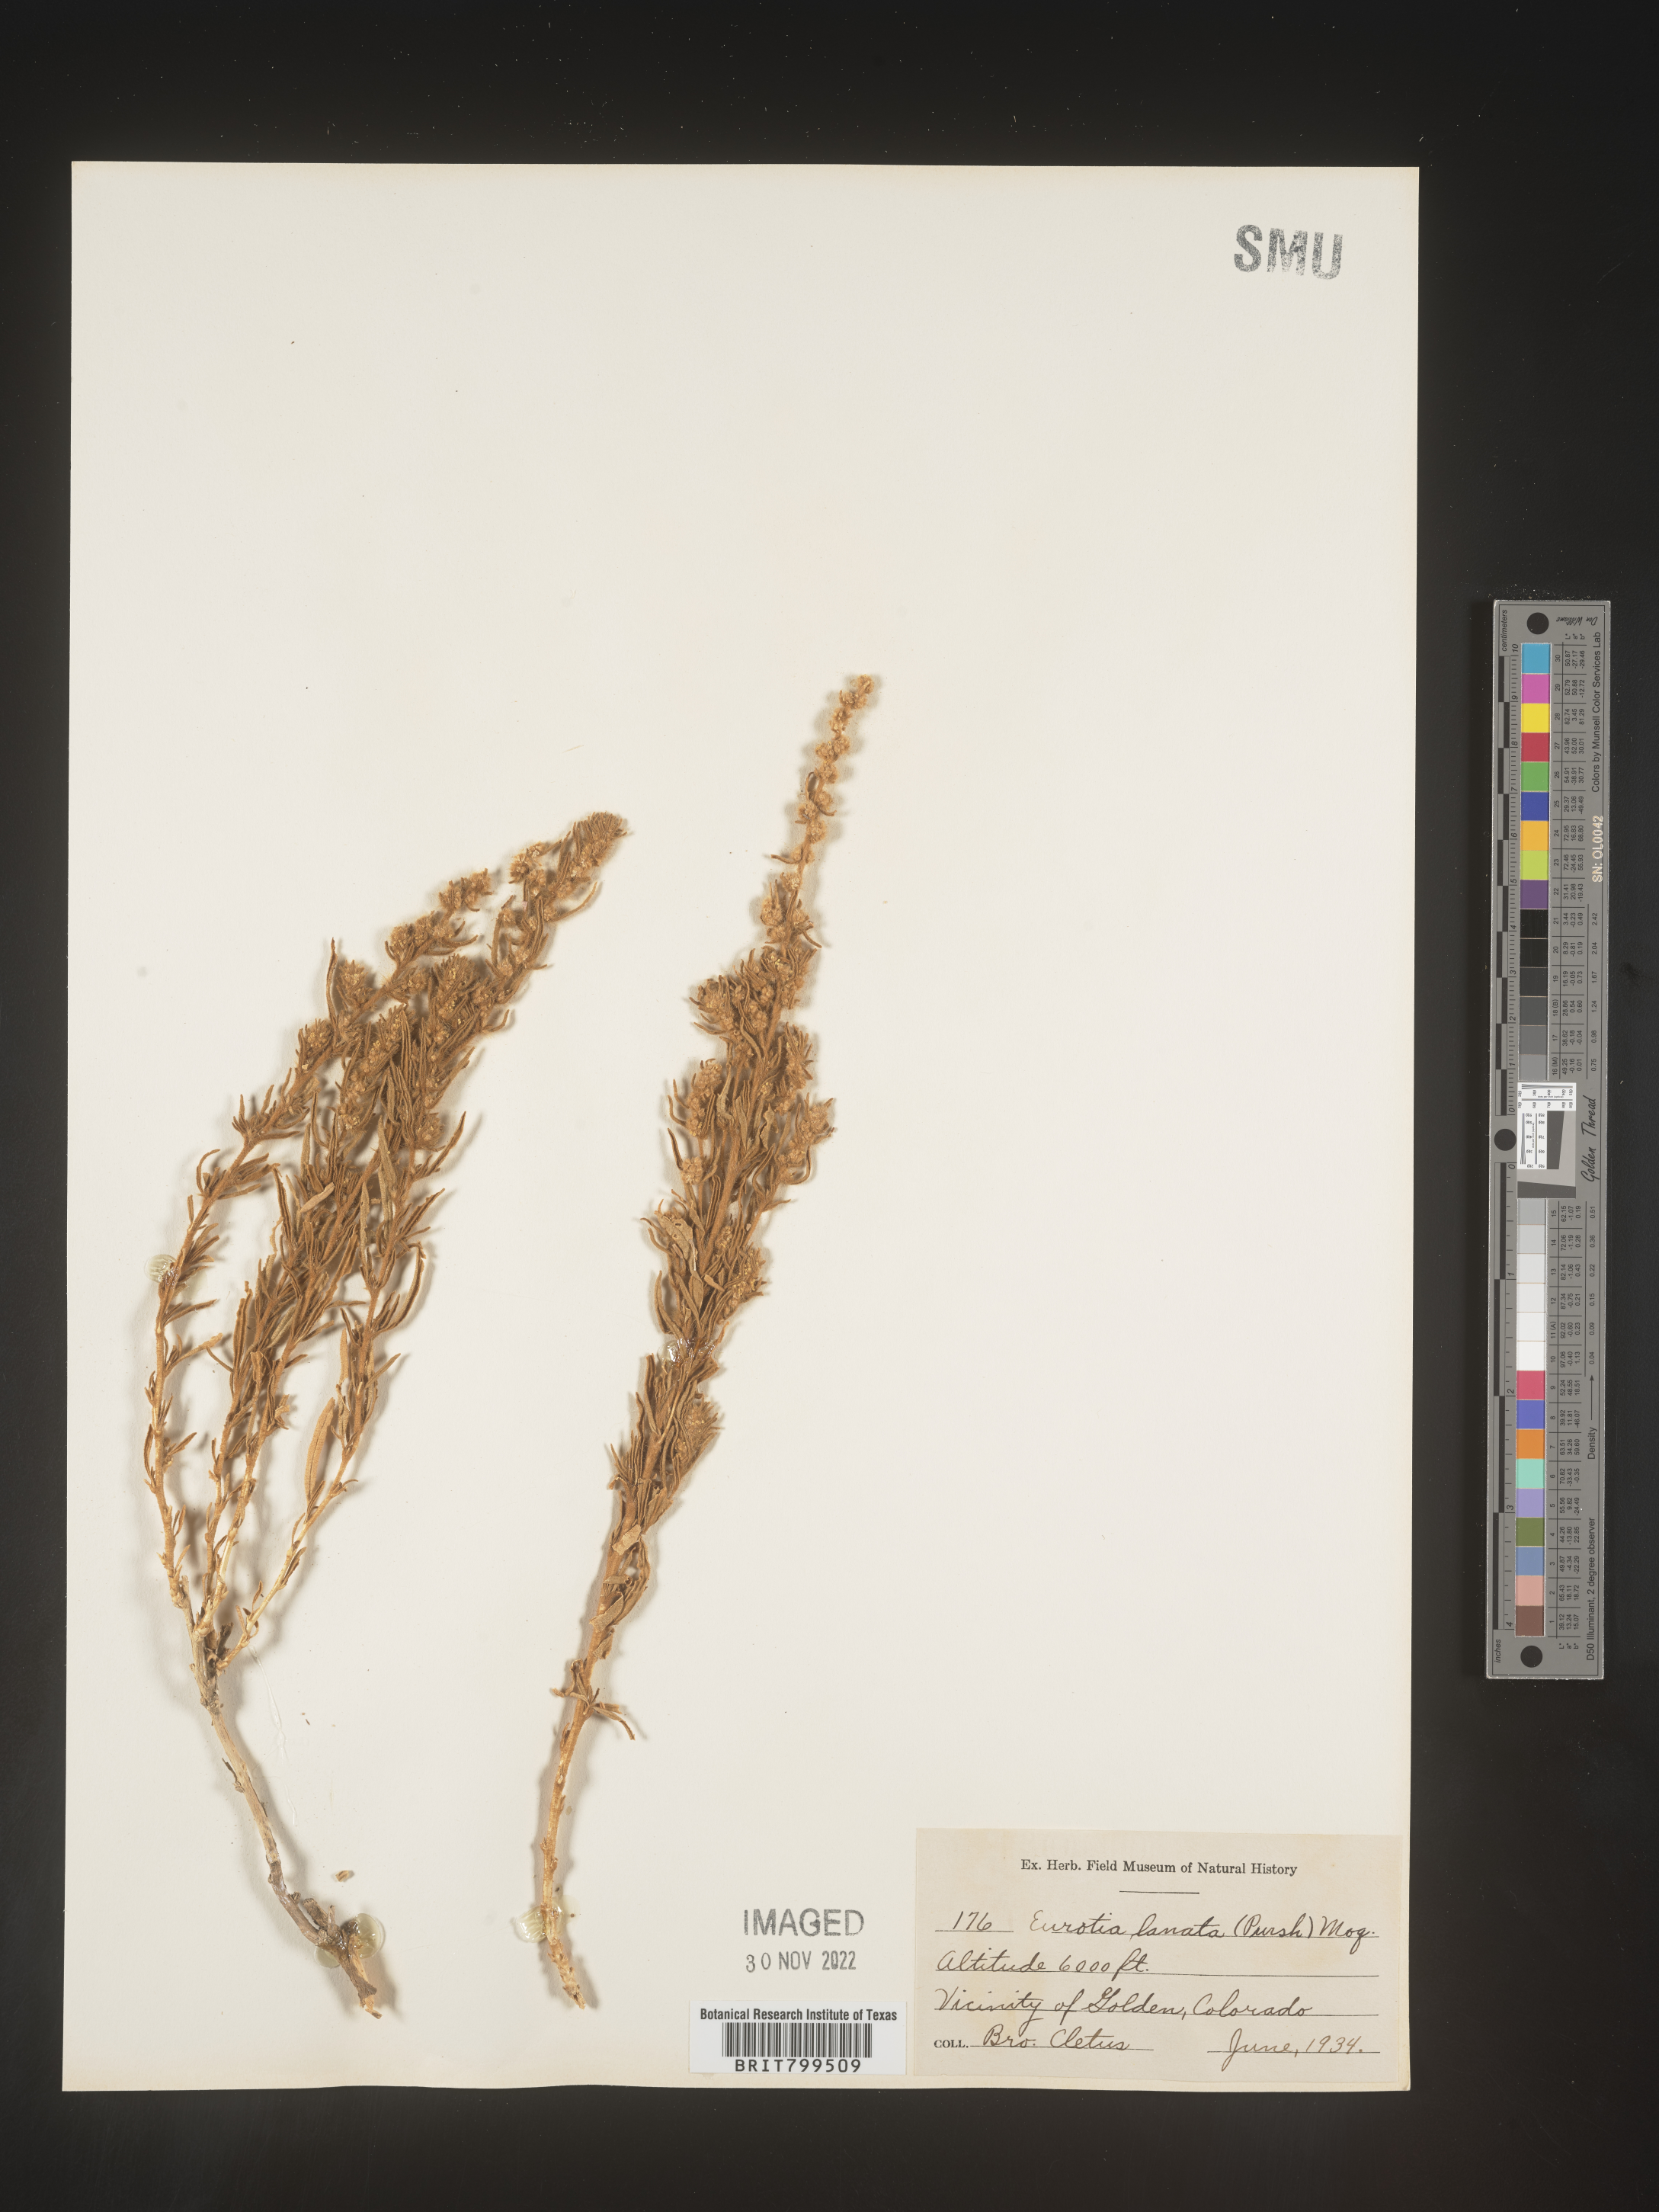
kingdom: Plantae
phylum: Tracheophyta
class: Magnoliopsida
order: Caryophyllales
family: Amaranthaceae
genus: Krascheninnikovia
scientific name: Krascheninnikovia
